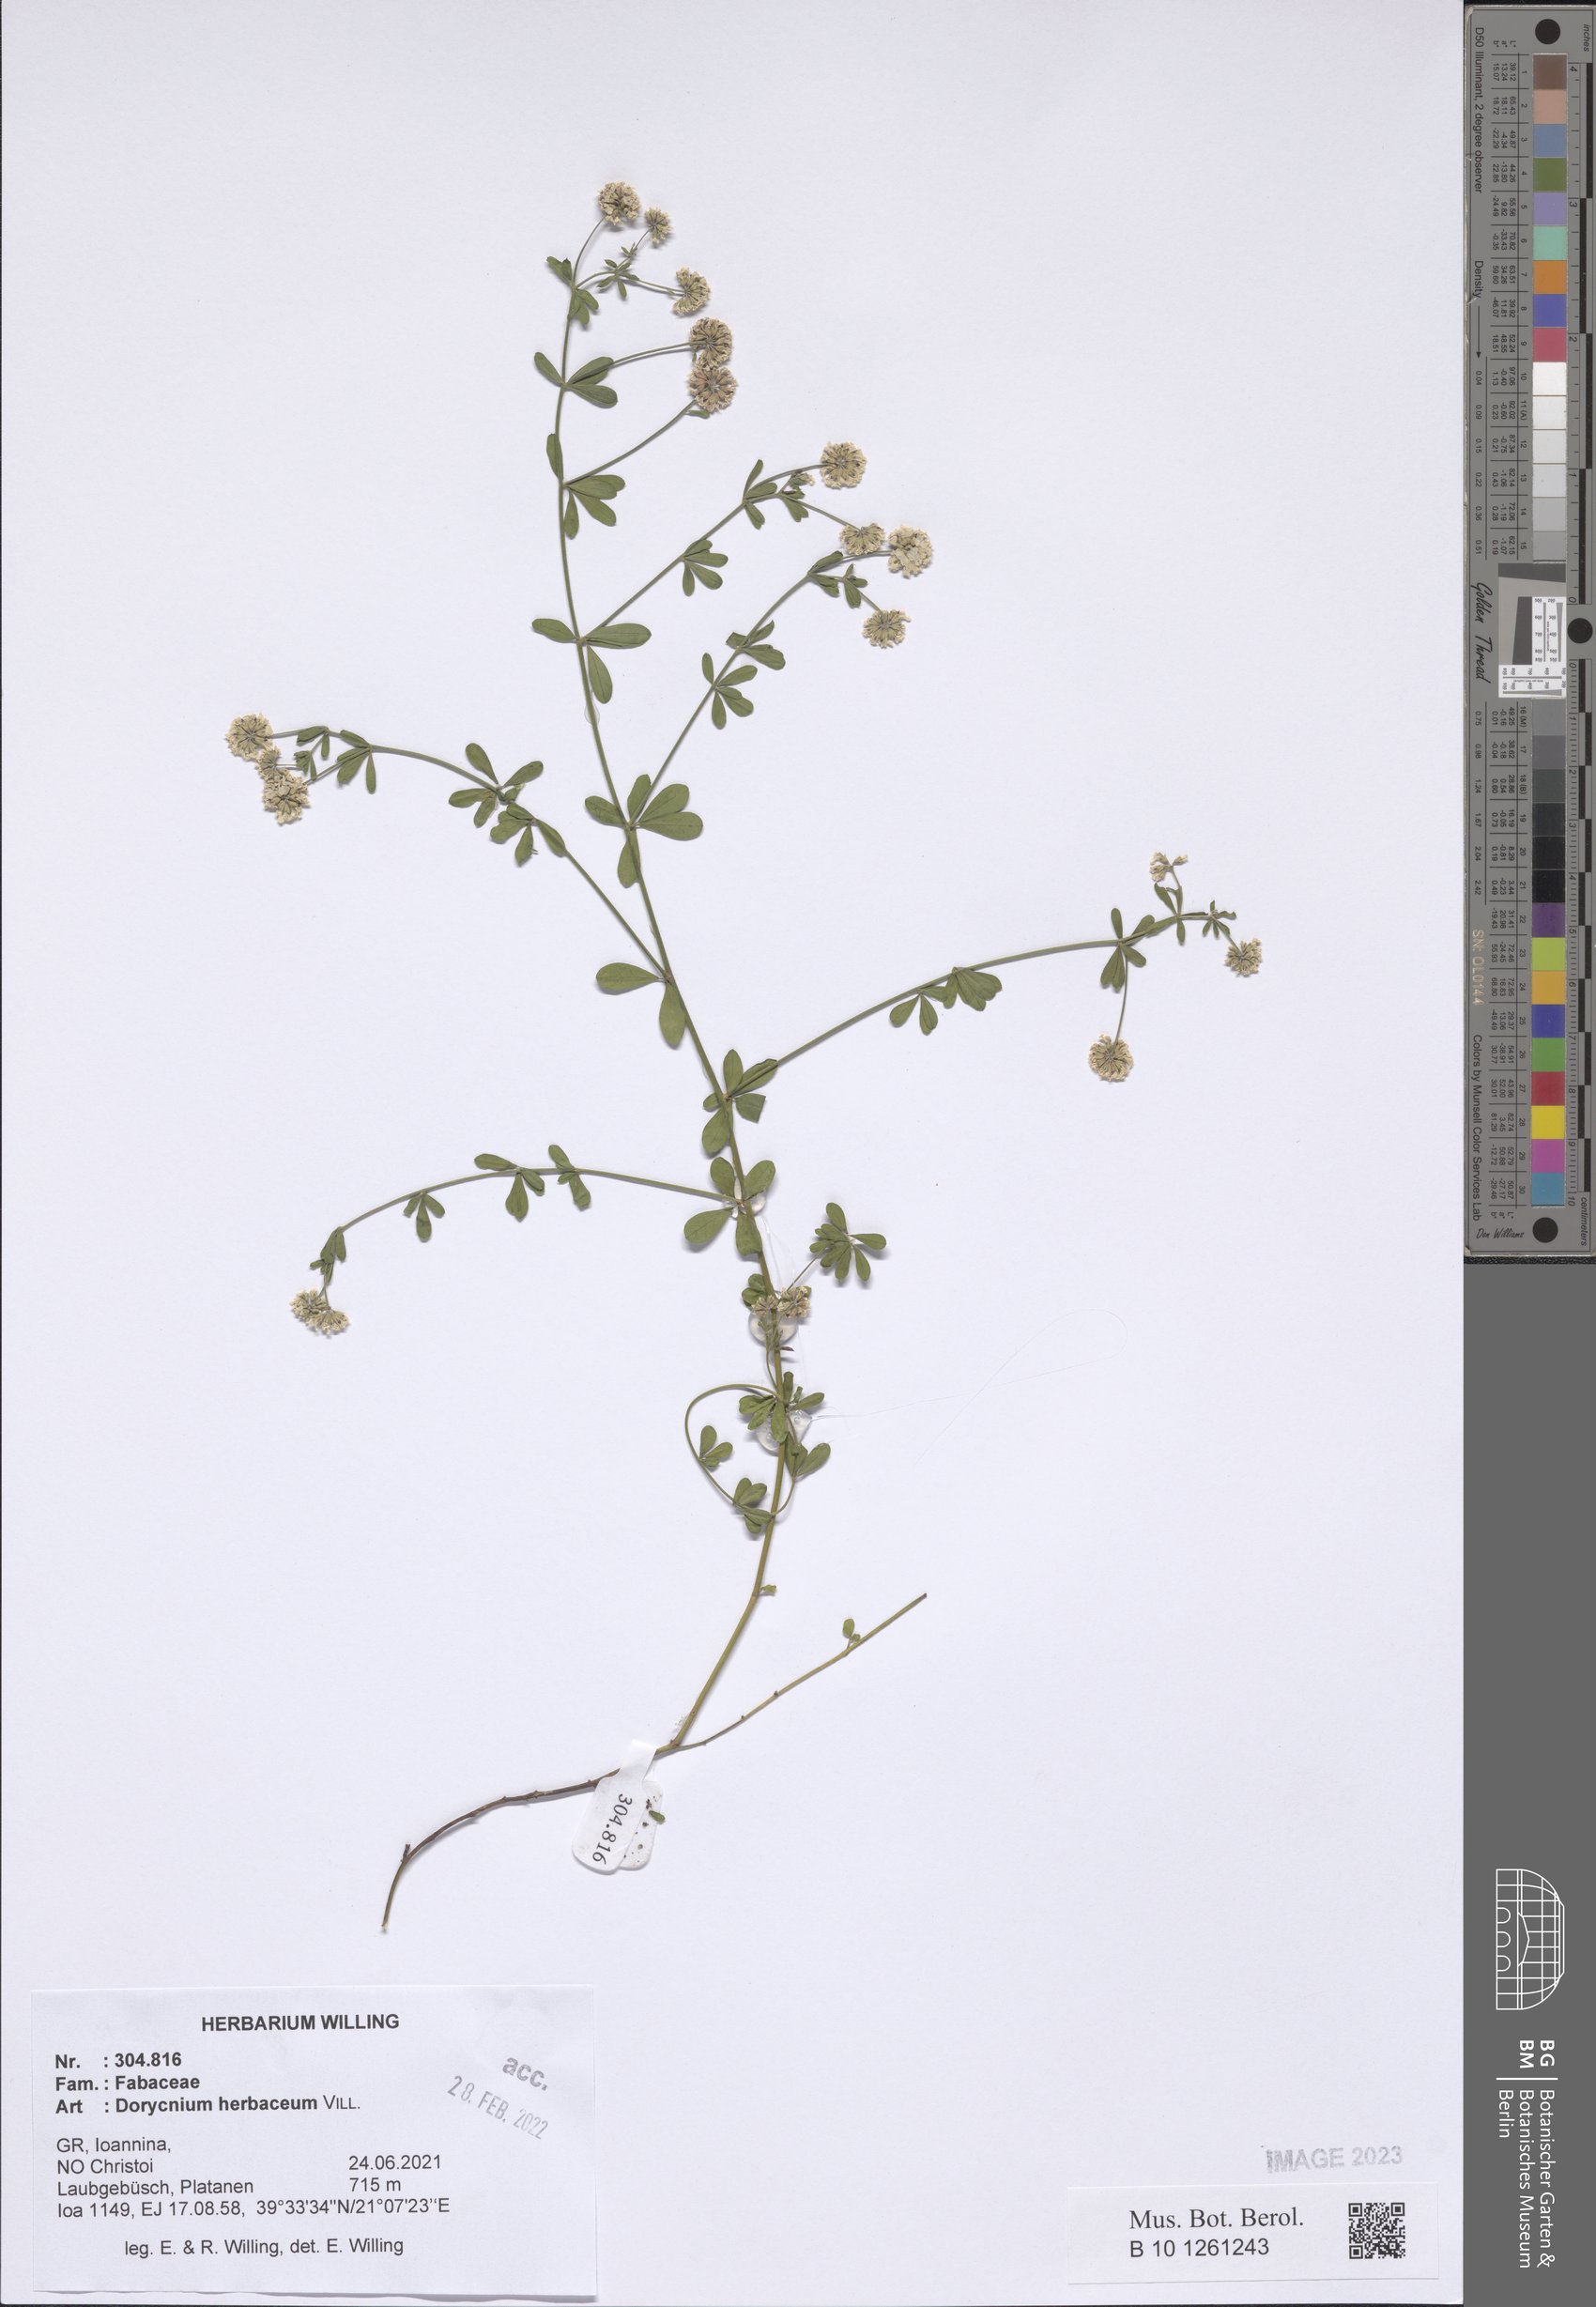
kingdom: Plantae
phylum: Tracheophyta
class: Magnoliopsida
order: Fabales
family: Fabaceae
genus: Lotus
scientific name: Lotus herbaceus
